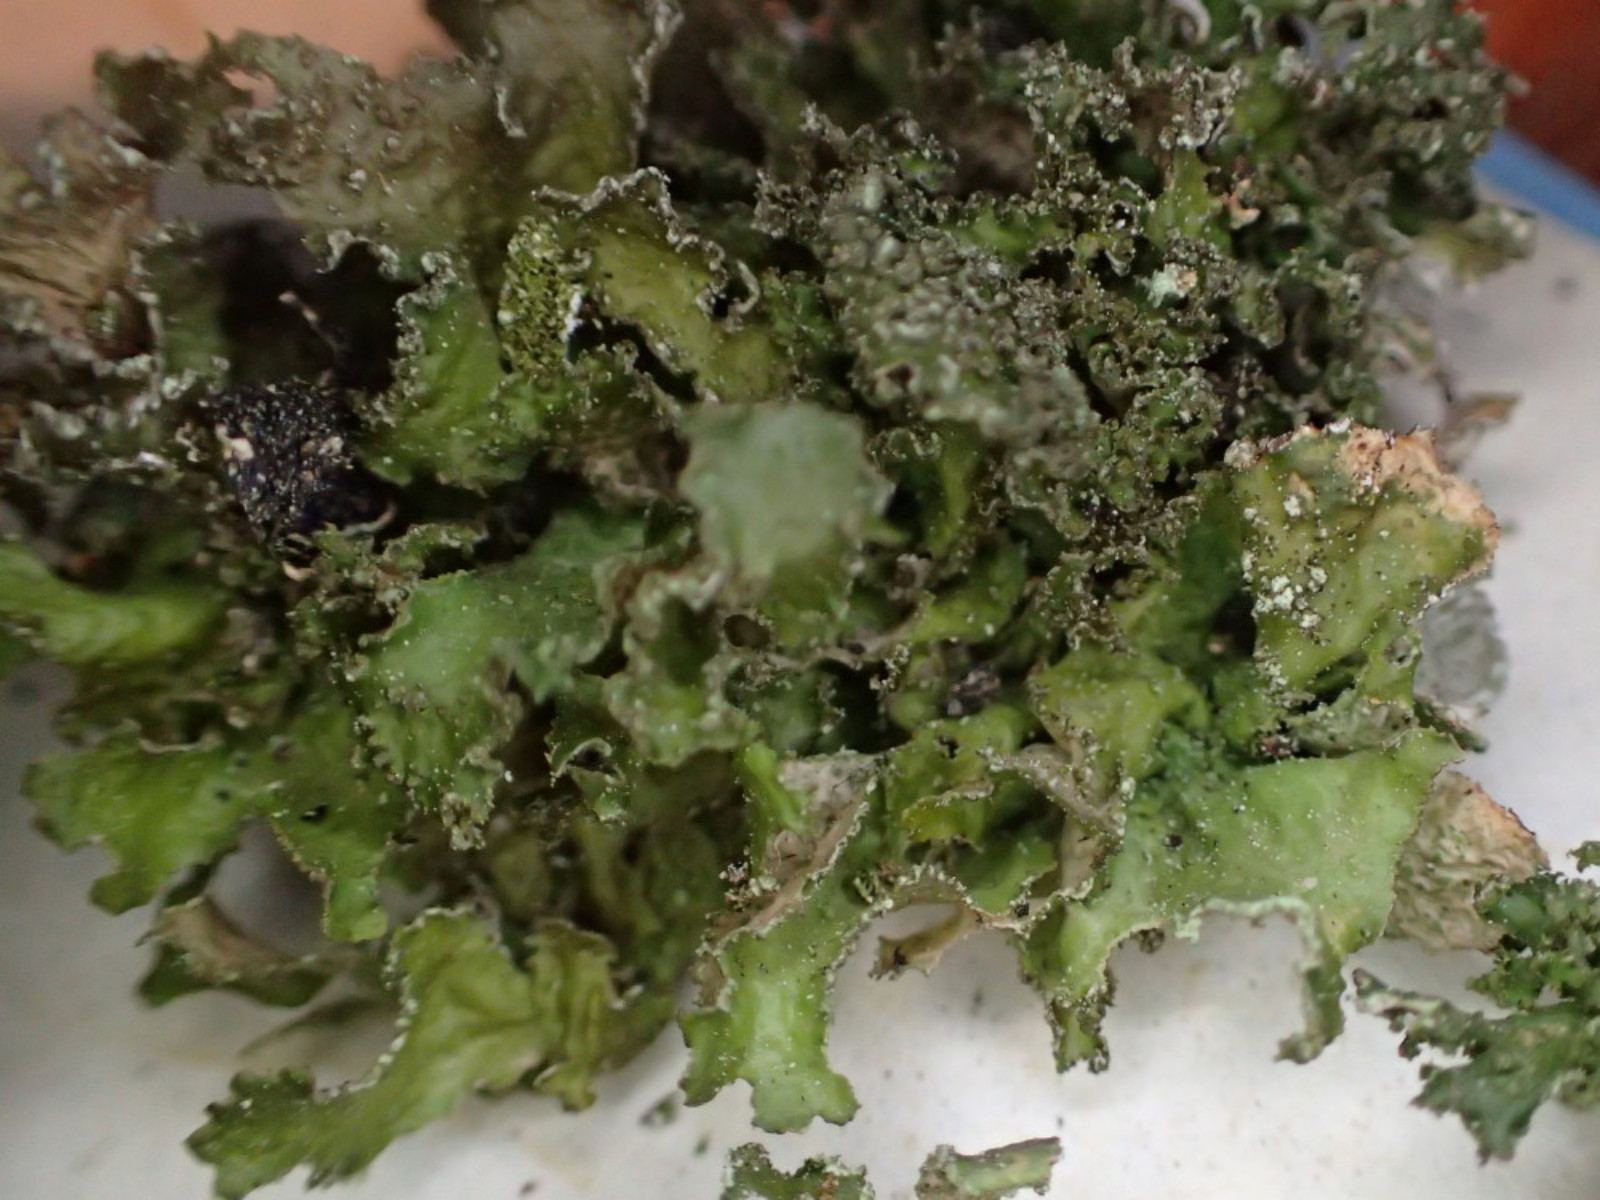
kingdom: Fungi
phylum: Ascomycota
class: Lecanoromycetes
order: Lecanorales
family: Parmeliaceae
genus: Nephromopsis
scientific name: Nephromopsis chlorophylla
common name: olivenbrun kruslav
